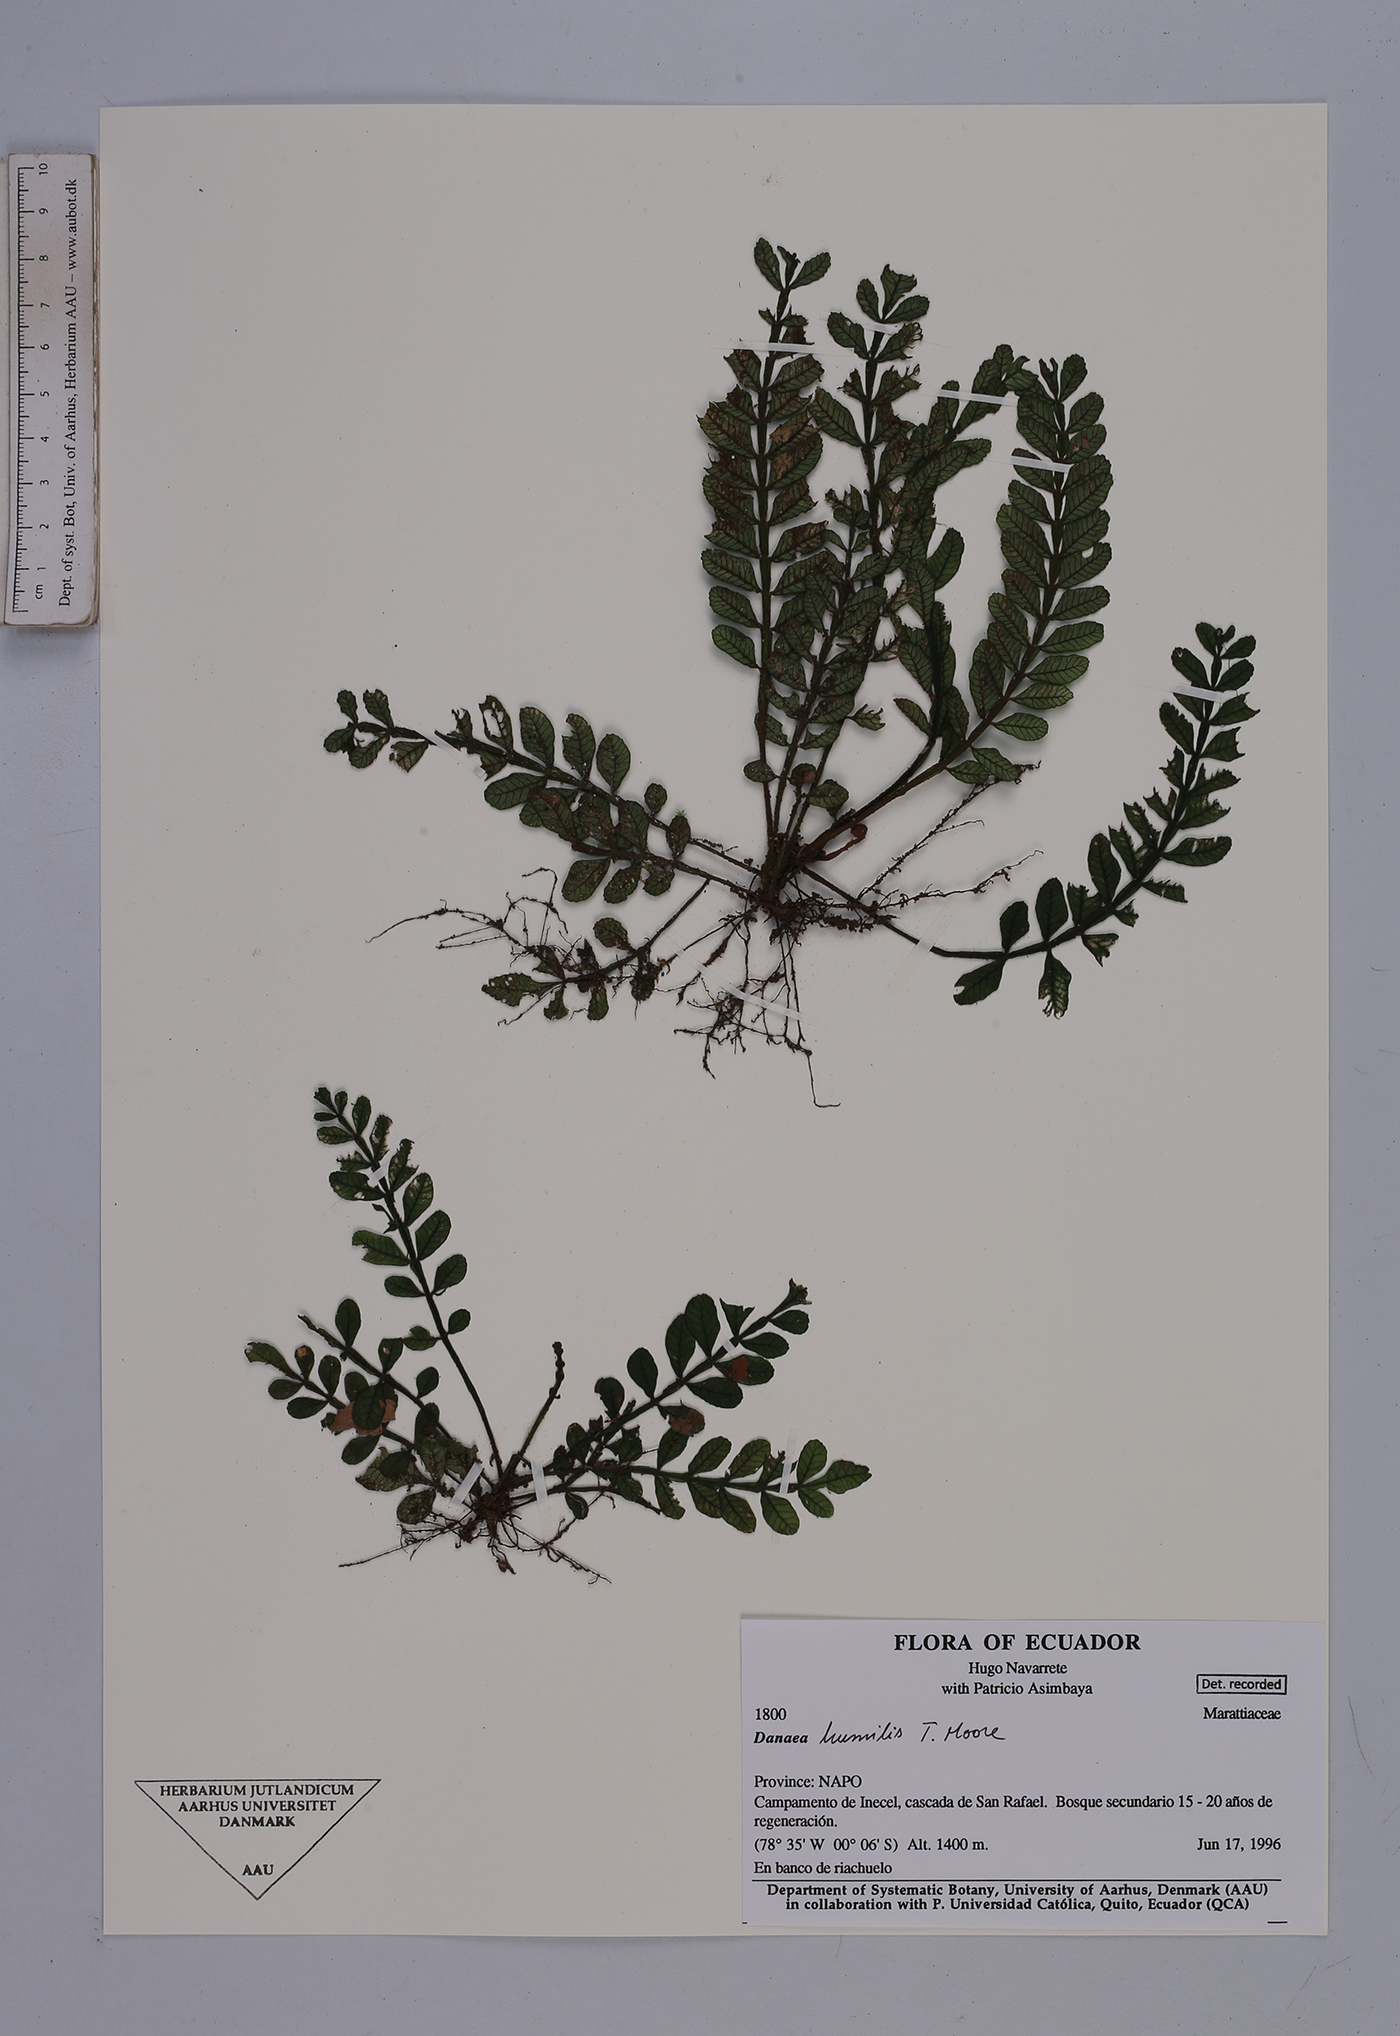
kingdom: Plantae
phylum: Tracheophyta
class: Polypodiopsida
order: Marattiales
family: Marattiaceae
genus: Danaea
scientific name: Danaea humilis
